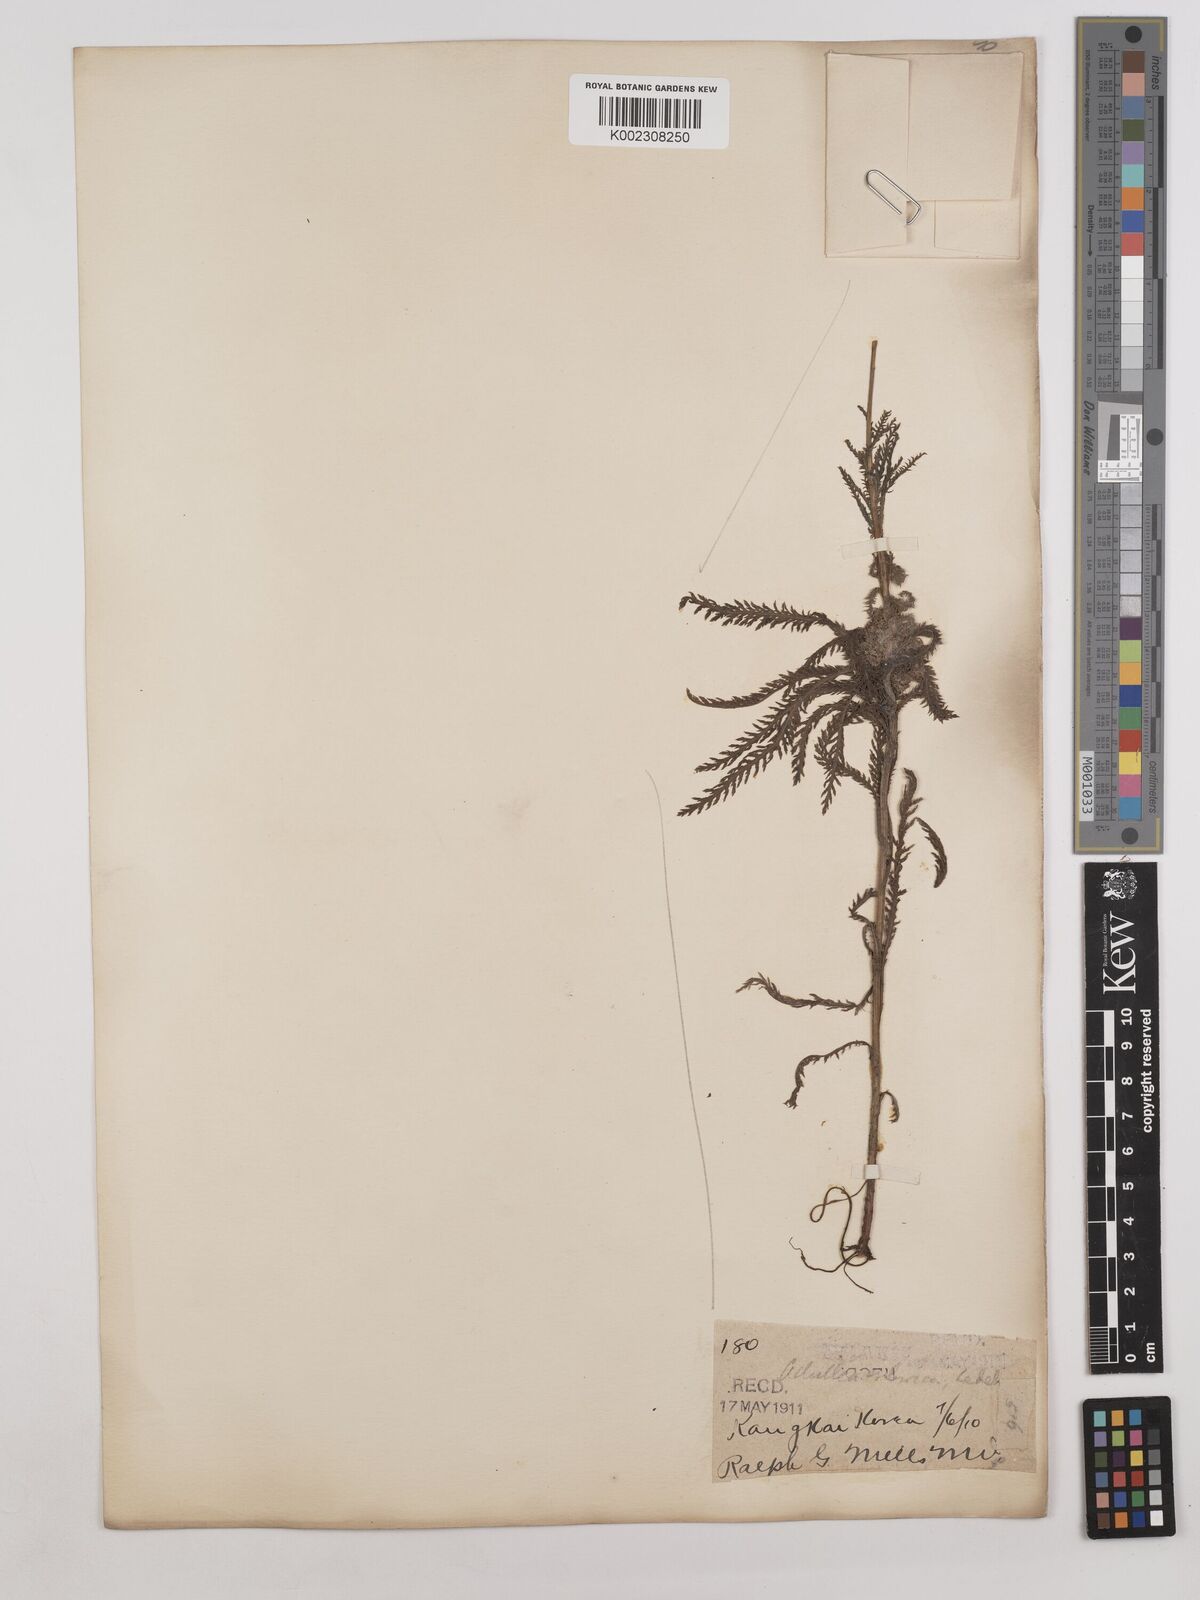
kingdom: Plantae
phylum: Tracheophyta
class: Magnoliopsida
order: Asterales
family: Asteraceae
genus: Achillea
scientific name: Achillea alpina
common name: Siberian yarrow
